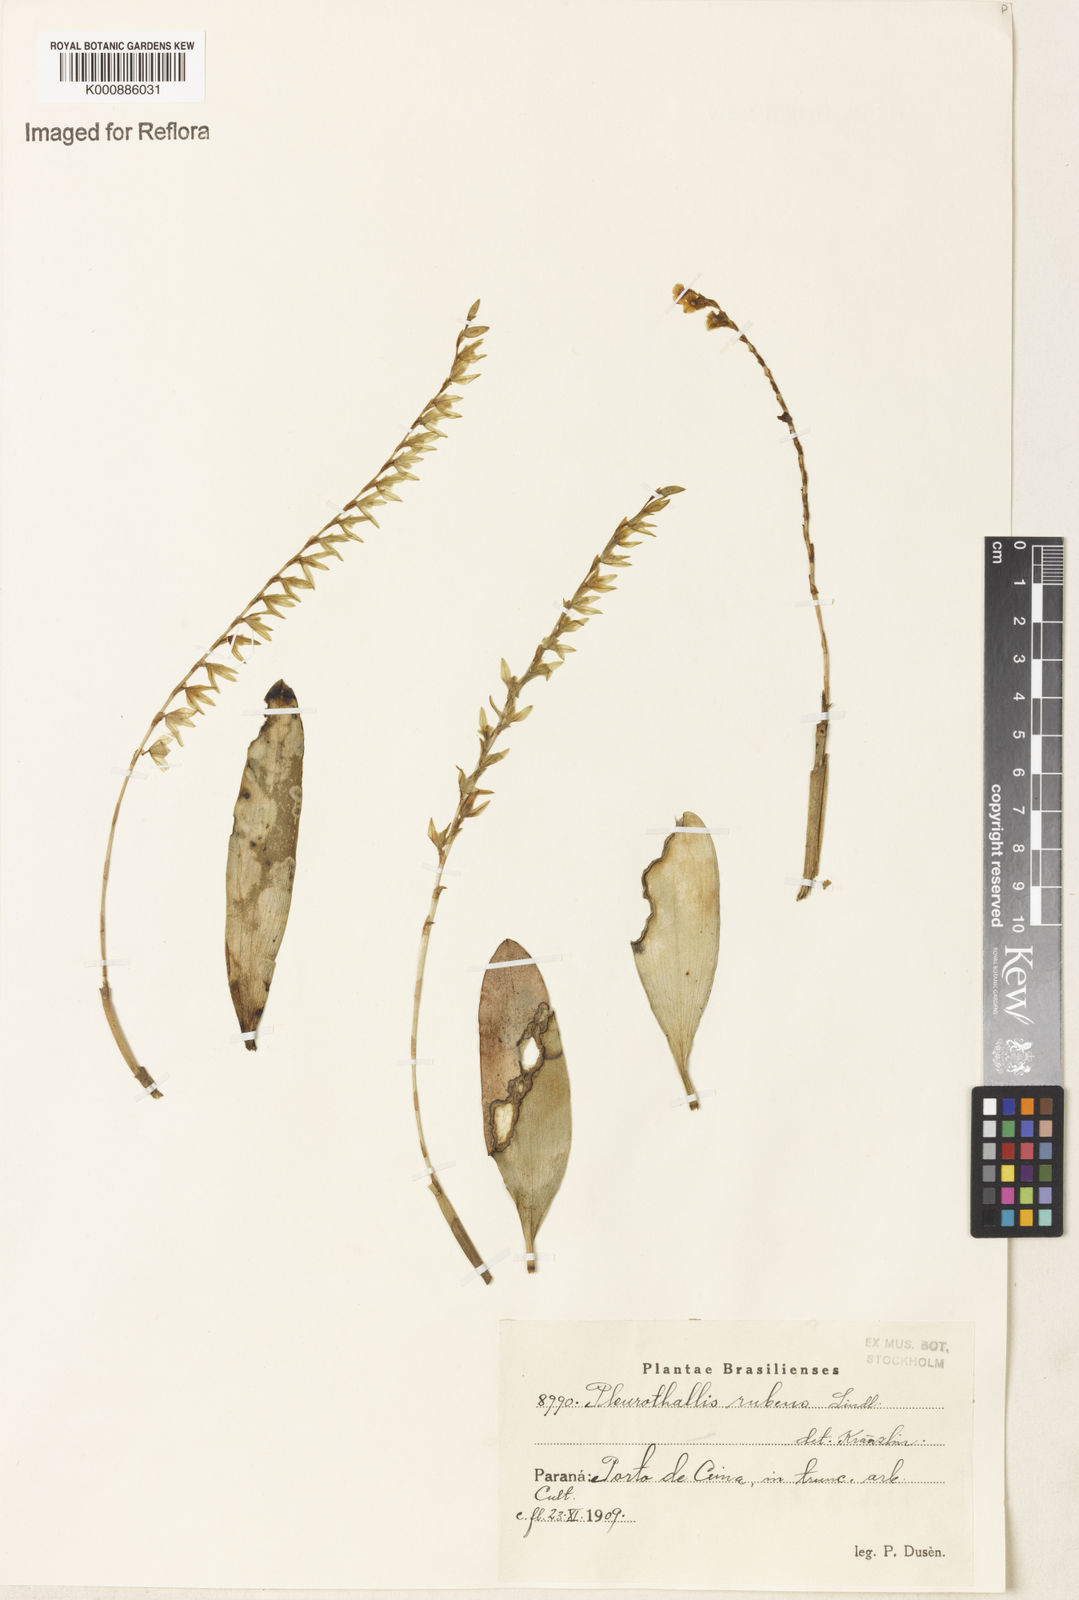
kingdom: Plantae
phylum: Tracheophyta
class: Liliopsida
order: Asparagales
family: Orchidaceae
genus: Stelis
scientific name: Stelis montserratii
